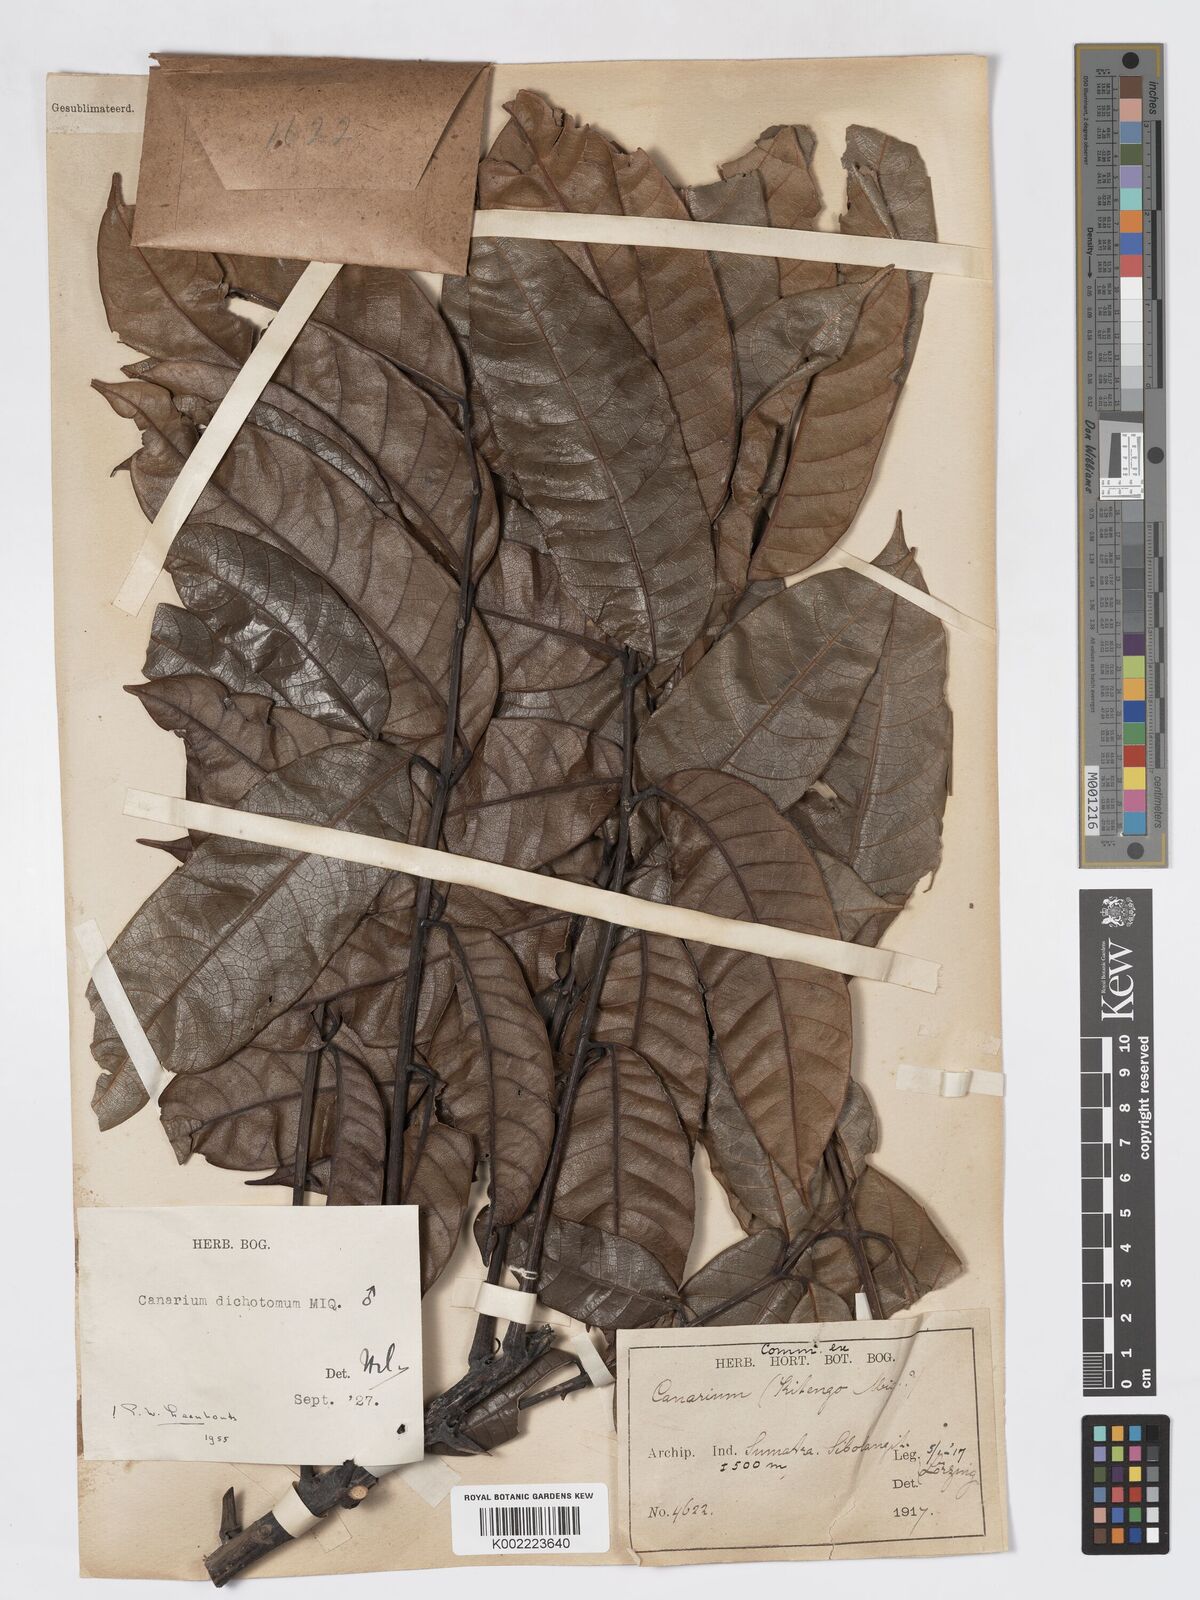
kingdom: Plantae
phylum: Tracheophyta
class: Magnoliopsida
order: Sapindales
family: Burseraceae
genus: Canarium
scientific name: Canarium dichotomum
